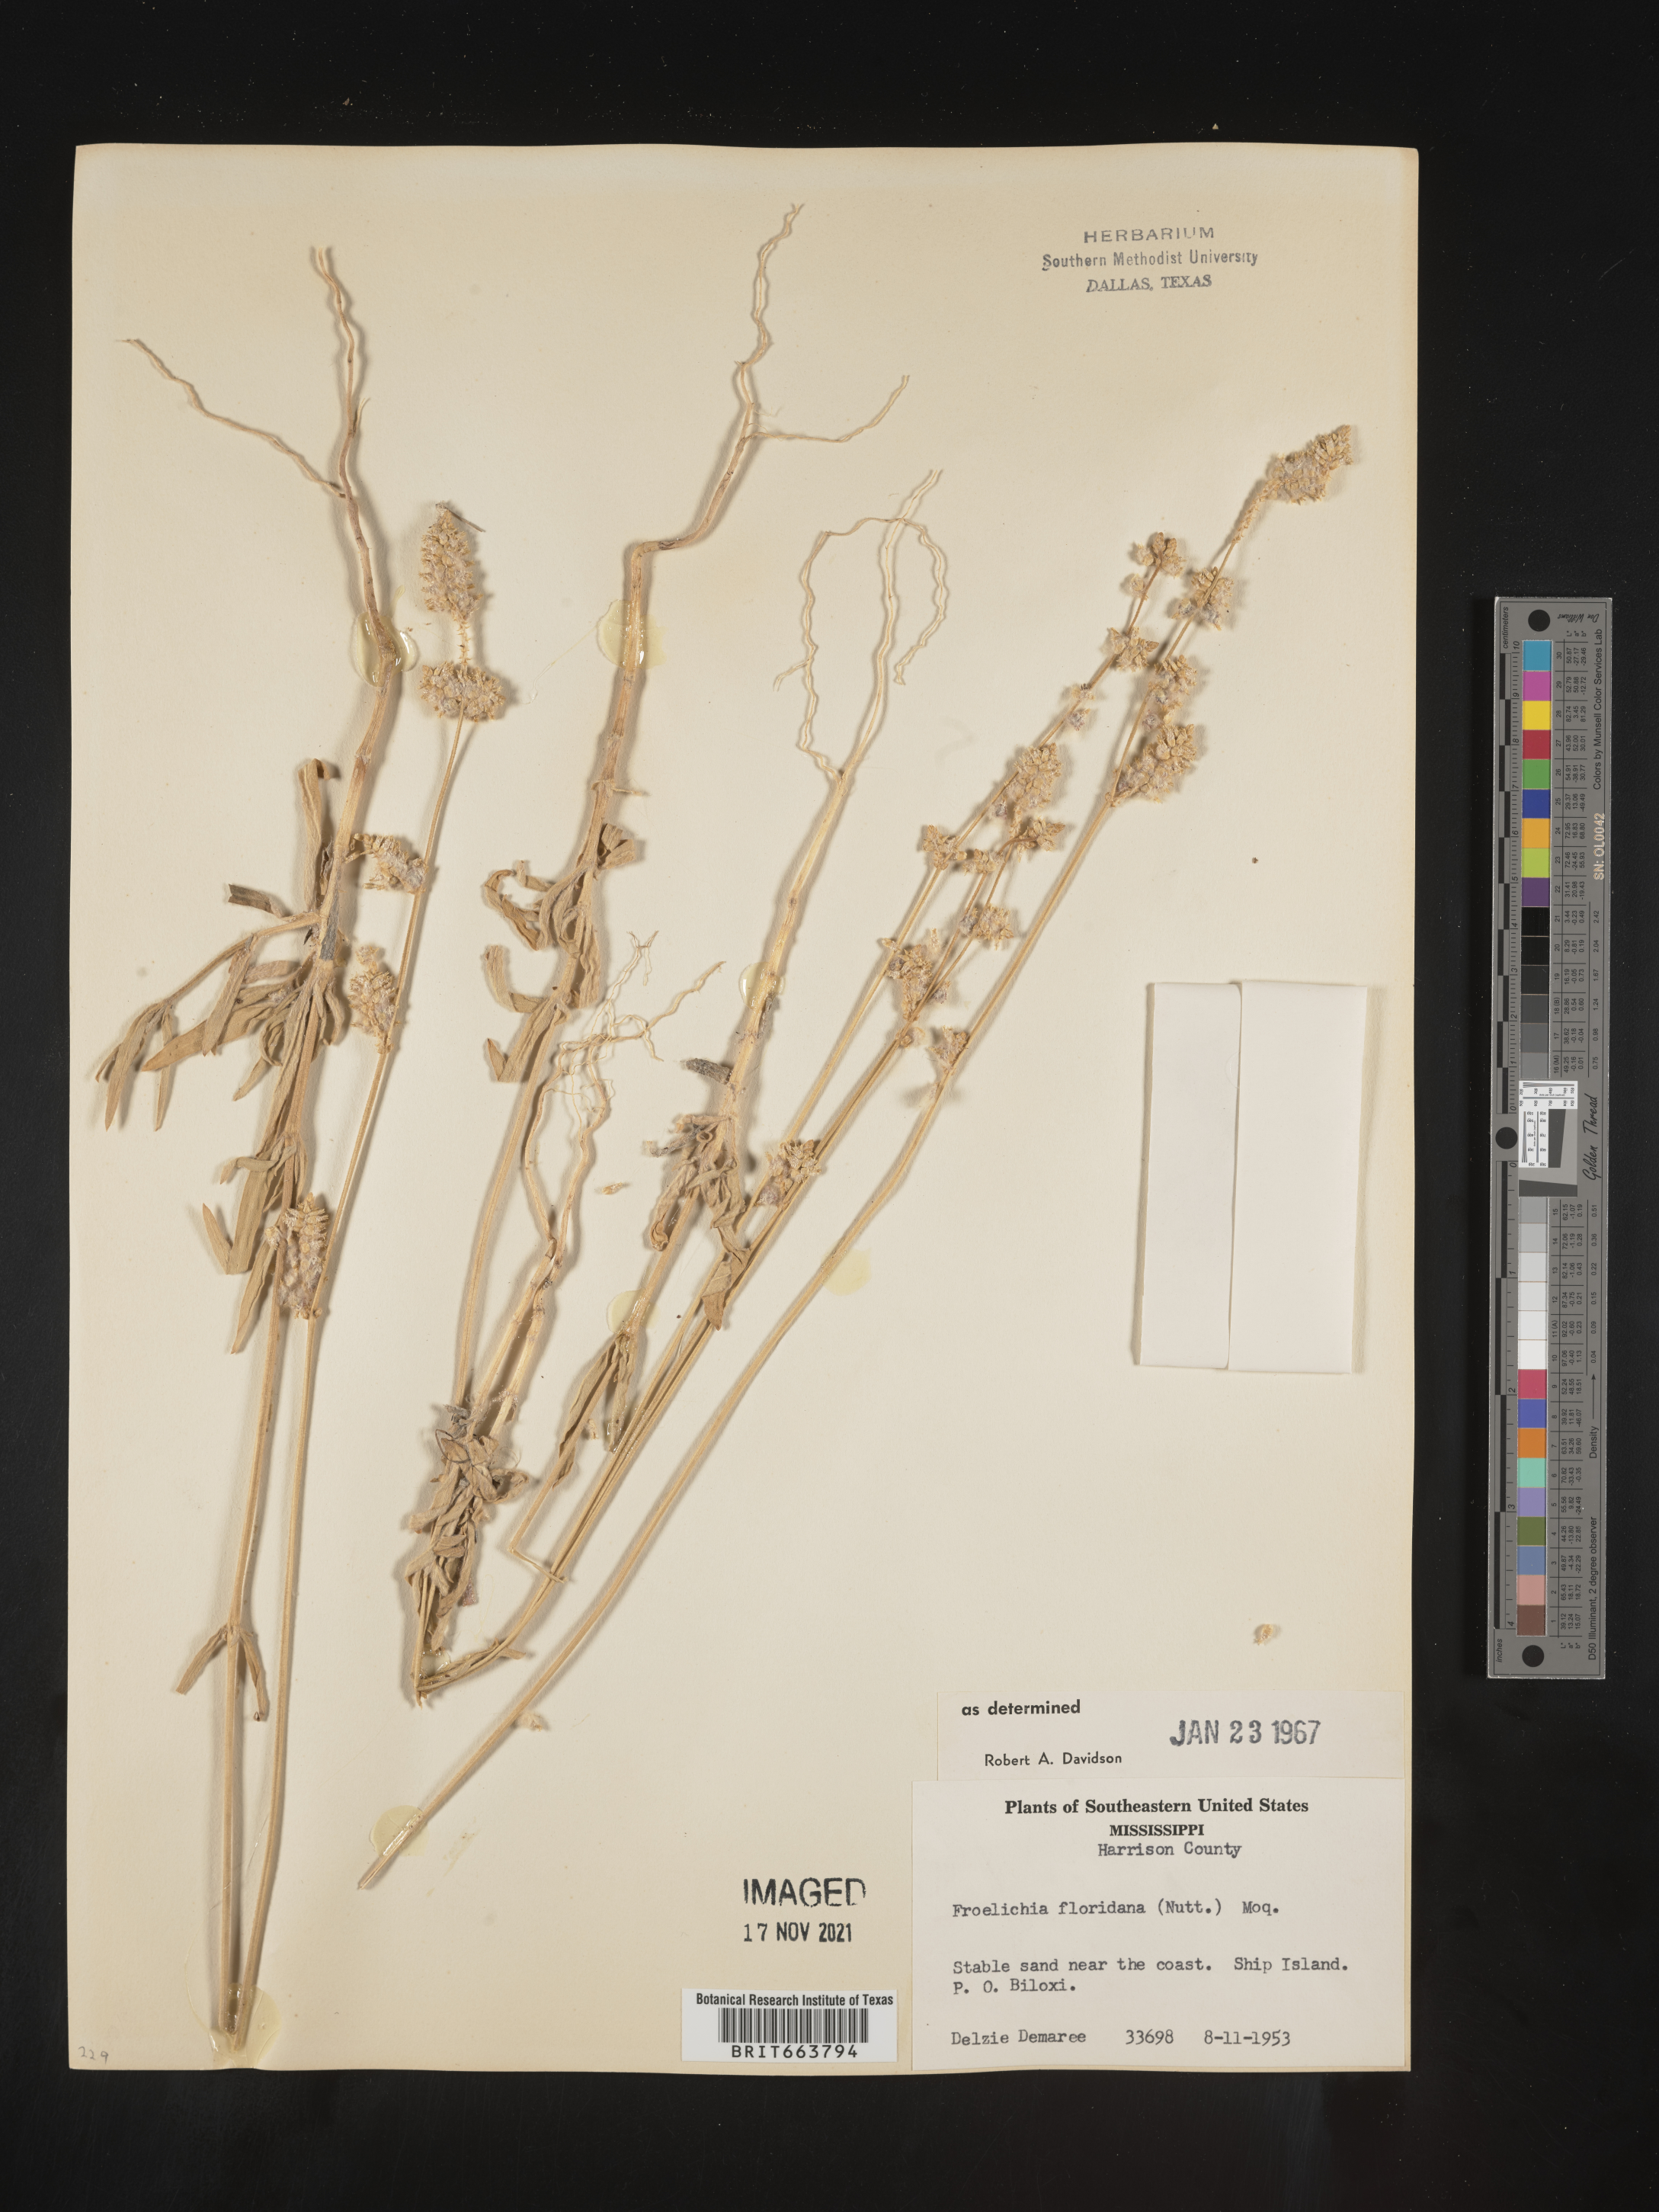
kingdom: Plantae
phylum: Tracheophyta
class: Magnoliopsida
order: Caryophyllales
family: Amaranthaceae
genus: Froelichia
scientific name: Froelichia floridana
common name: Florida snake-cotton
